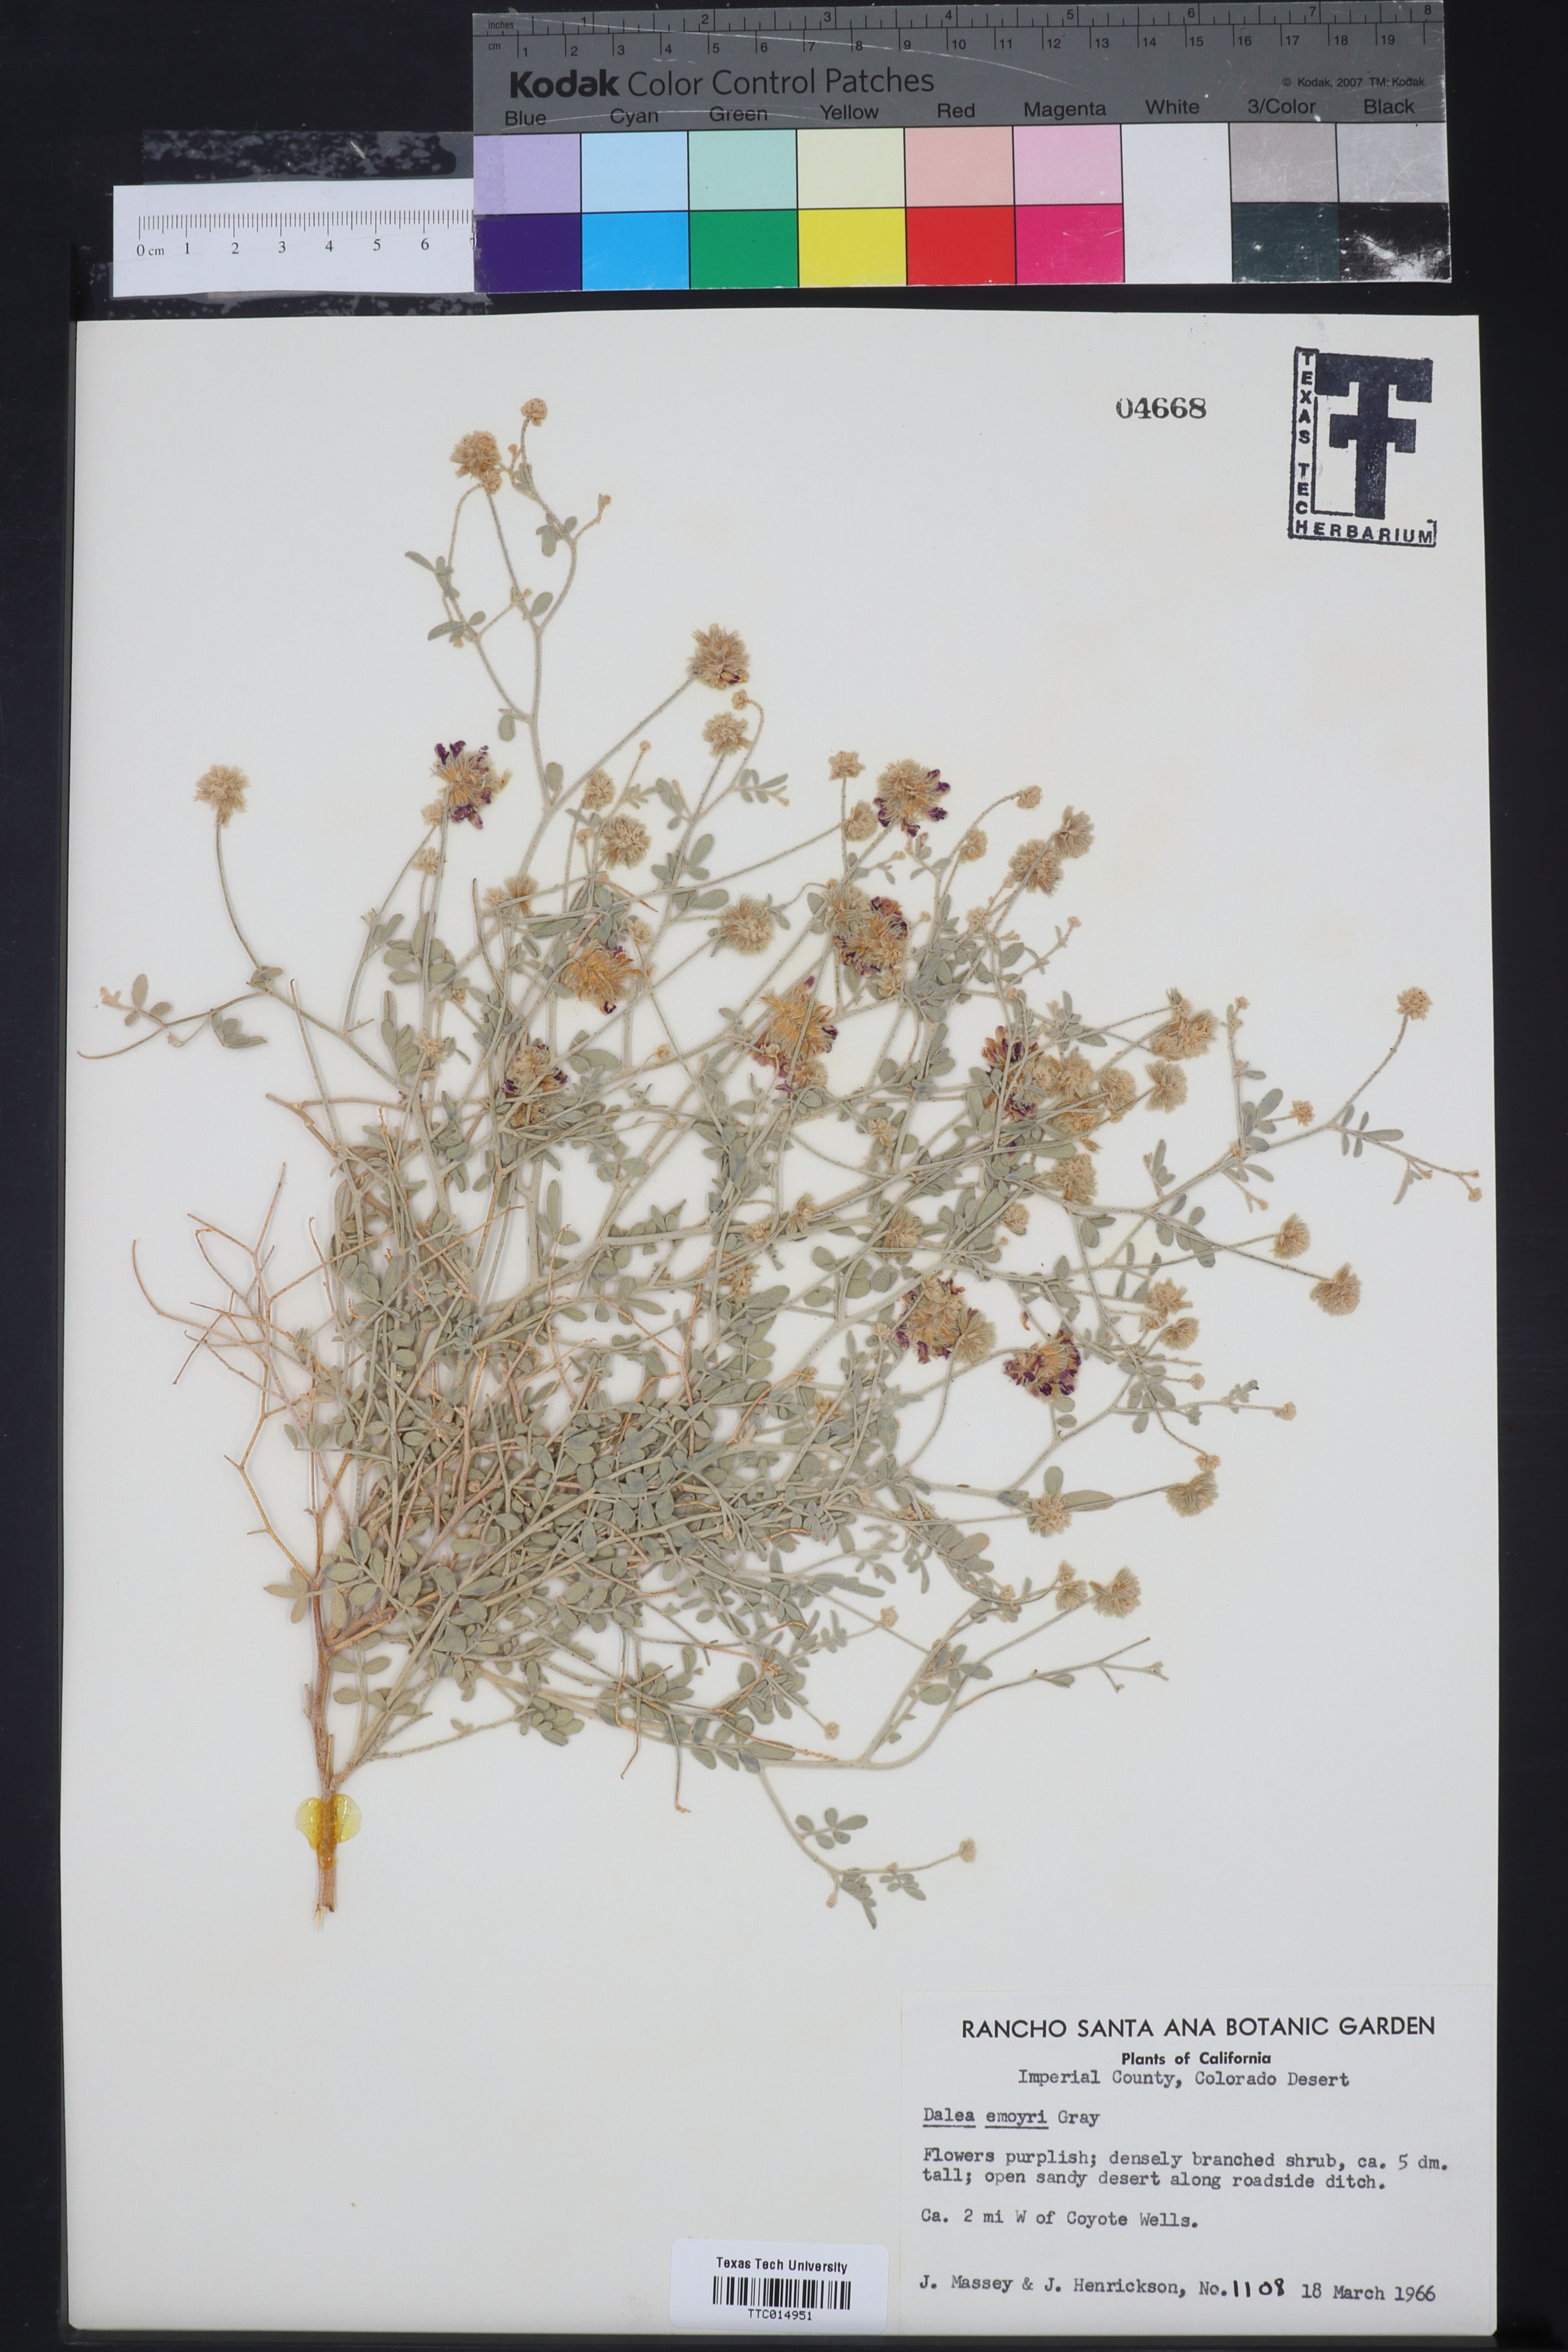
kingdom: Plantae
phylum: Tracheophyta
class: Magnoliopsida
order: Fabales
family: Fabaceae
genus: Psorothamnus
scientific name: Psorothamnus emoryi
